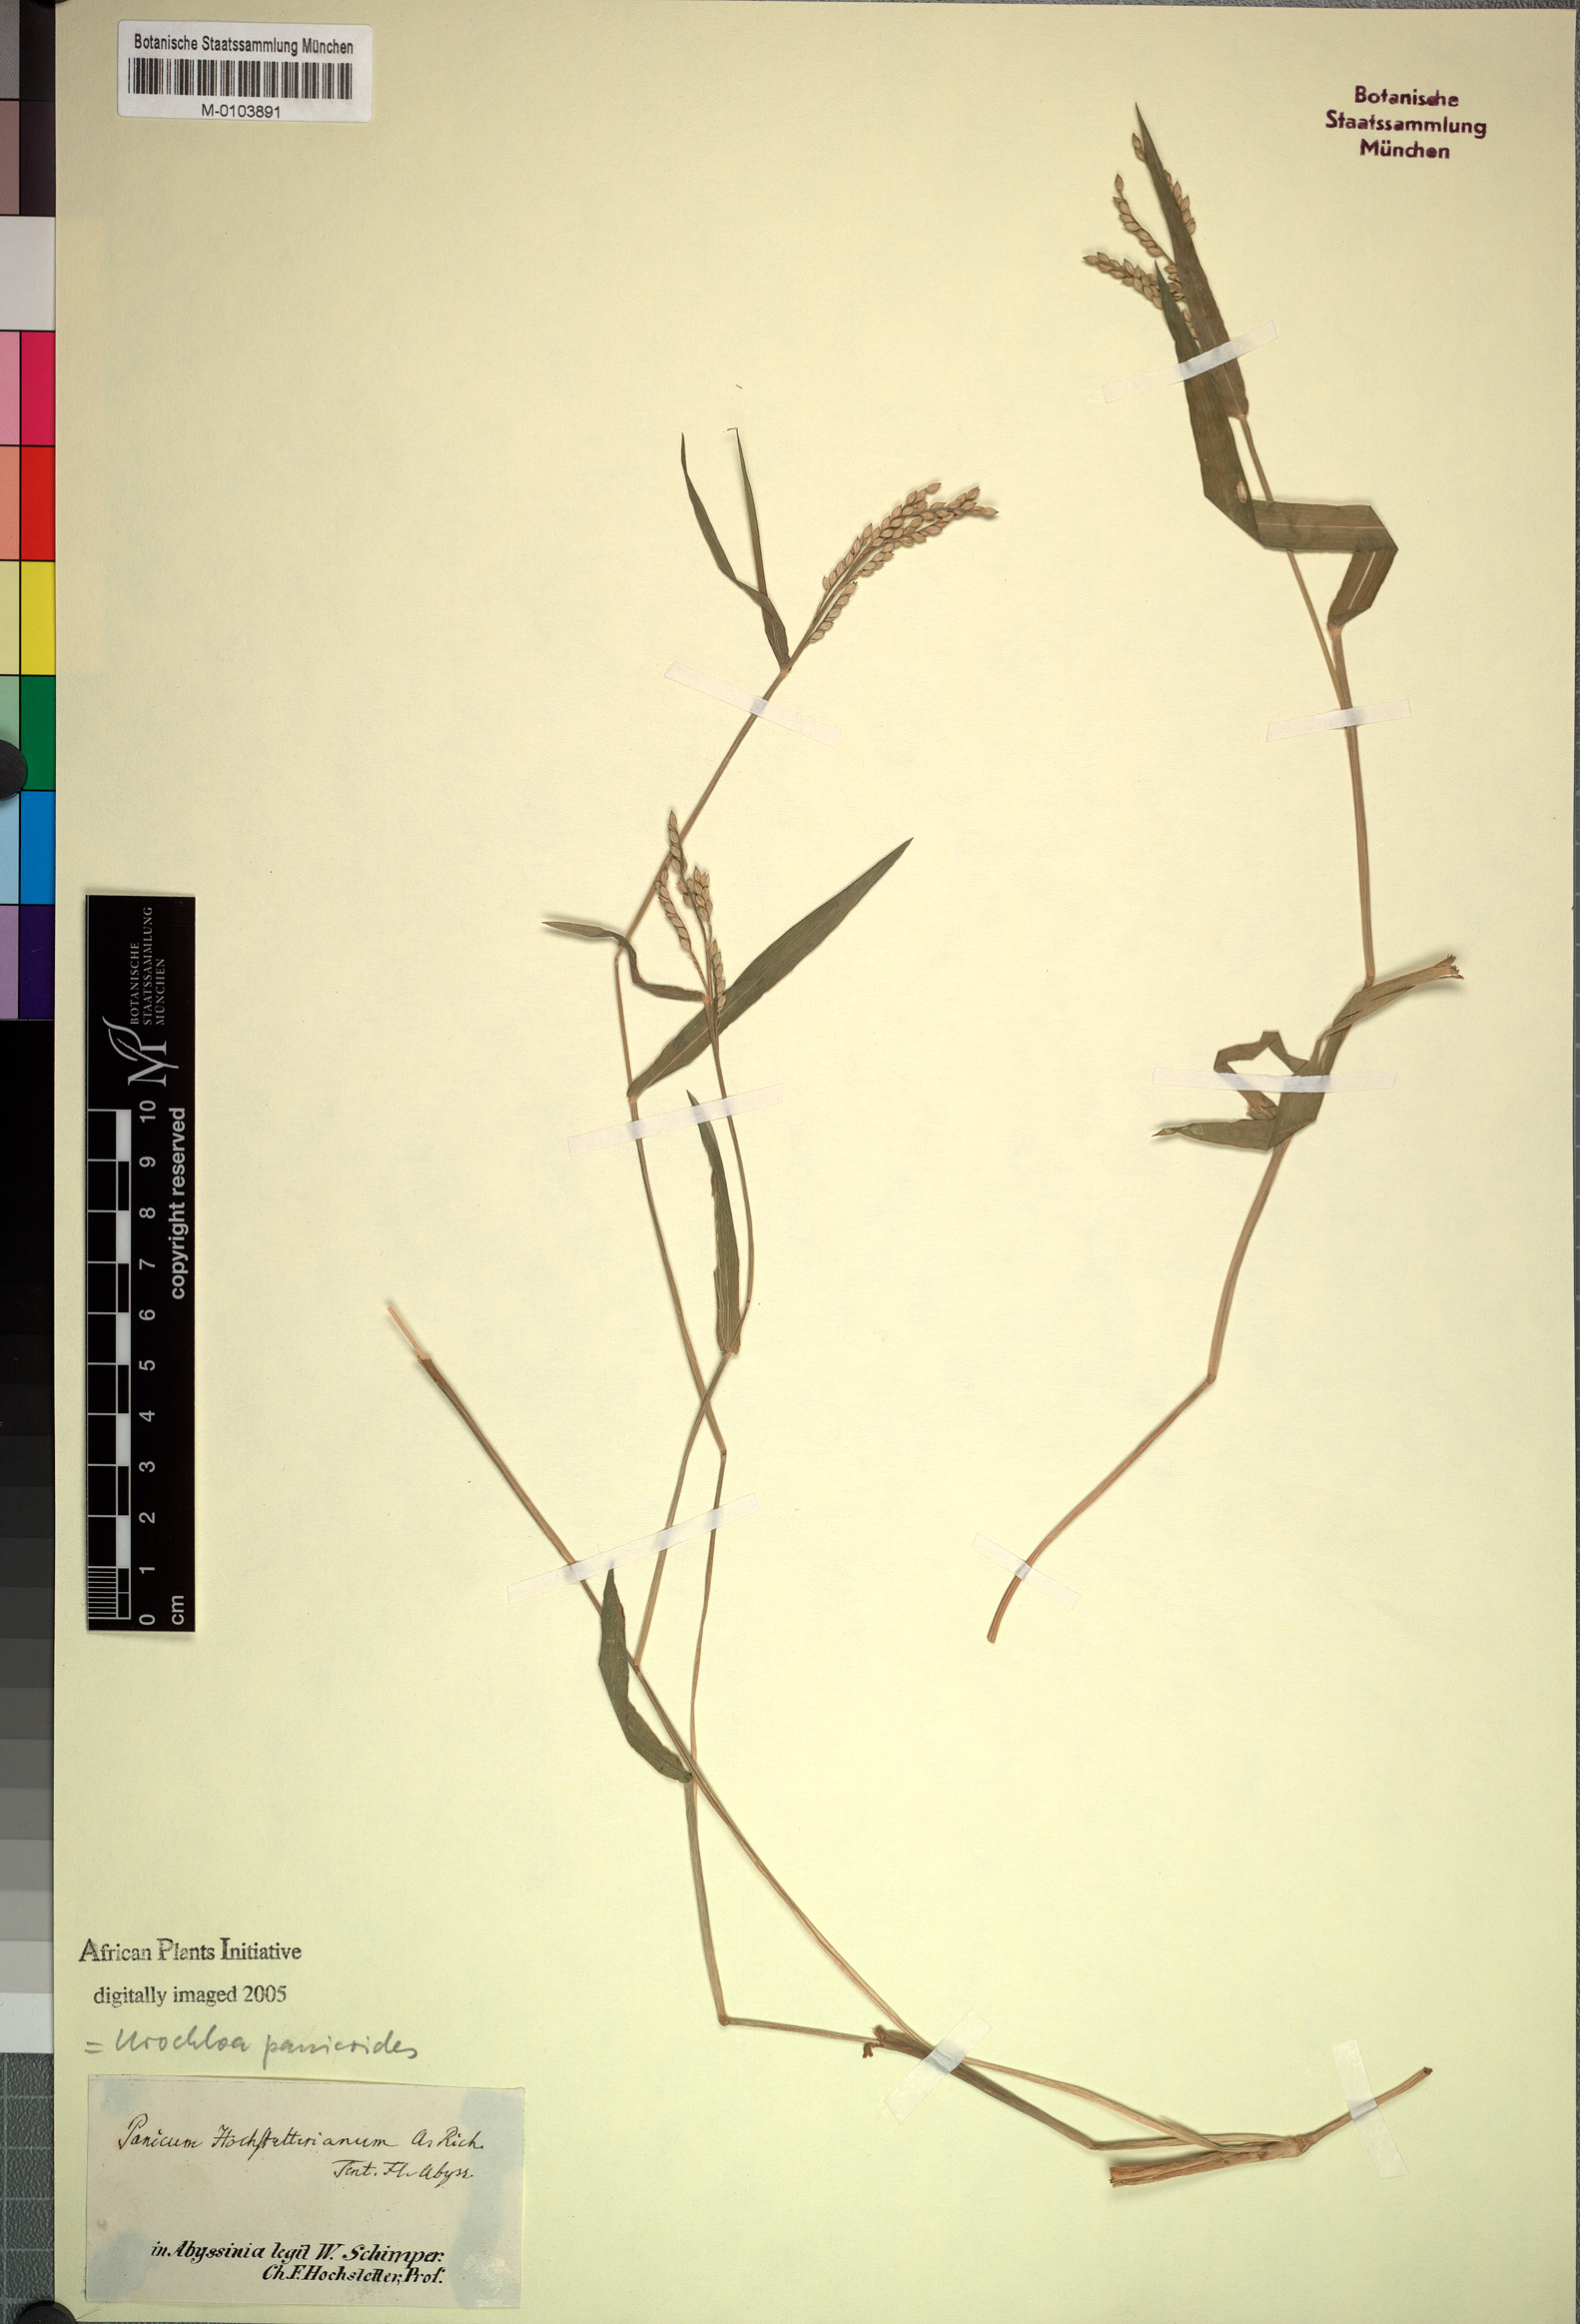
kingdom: Plantae
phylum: Tracheophyta
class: Liliopsida
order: Poales
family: Poaceae
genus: Urochloa
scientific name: Urochloa panicoides
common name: Sharp-flowered signal-grass
